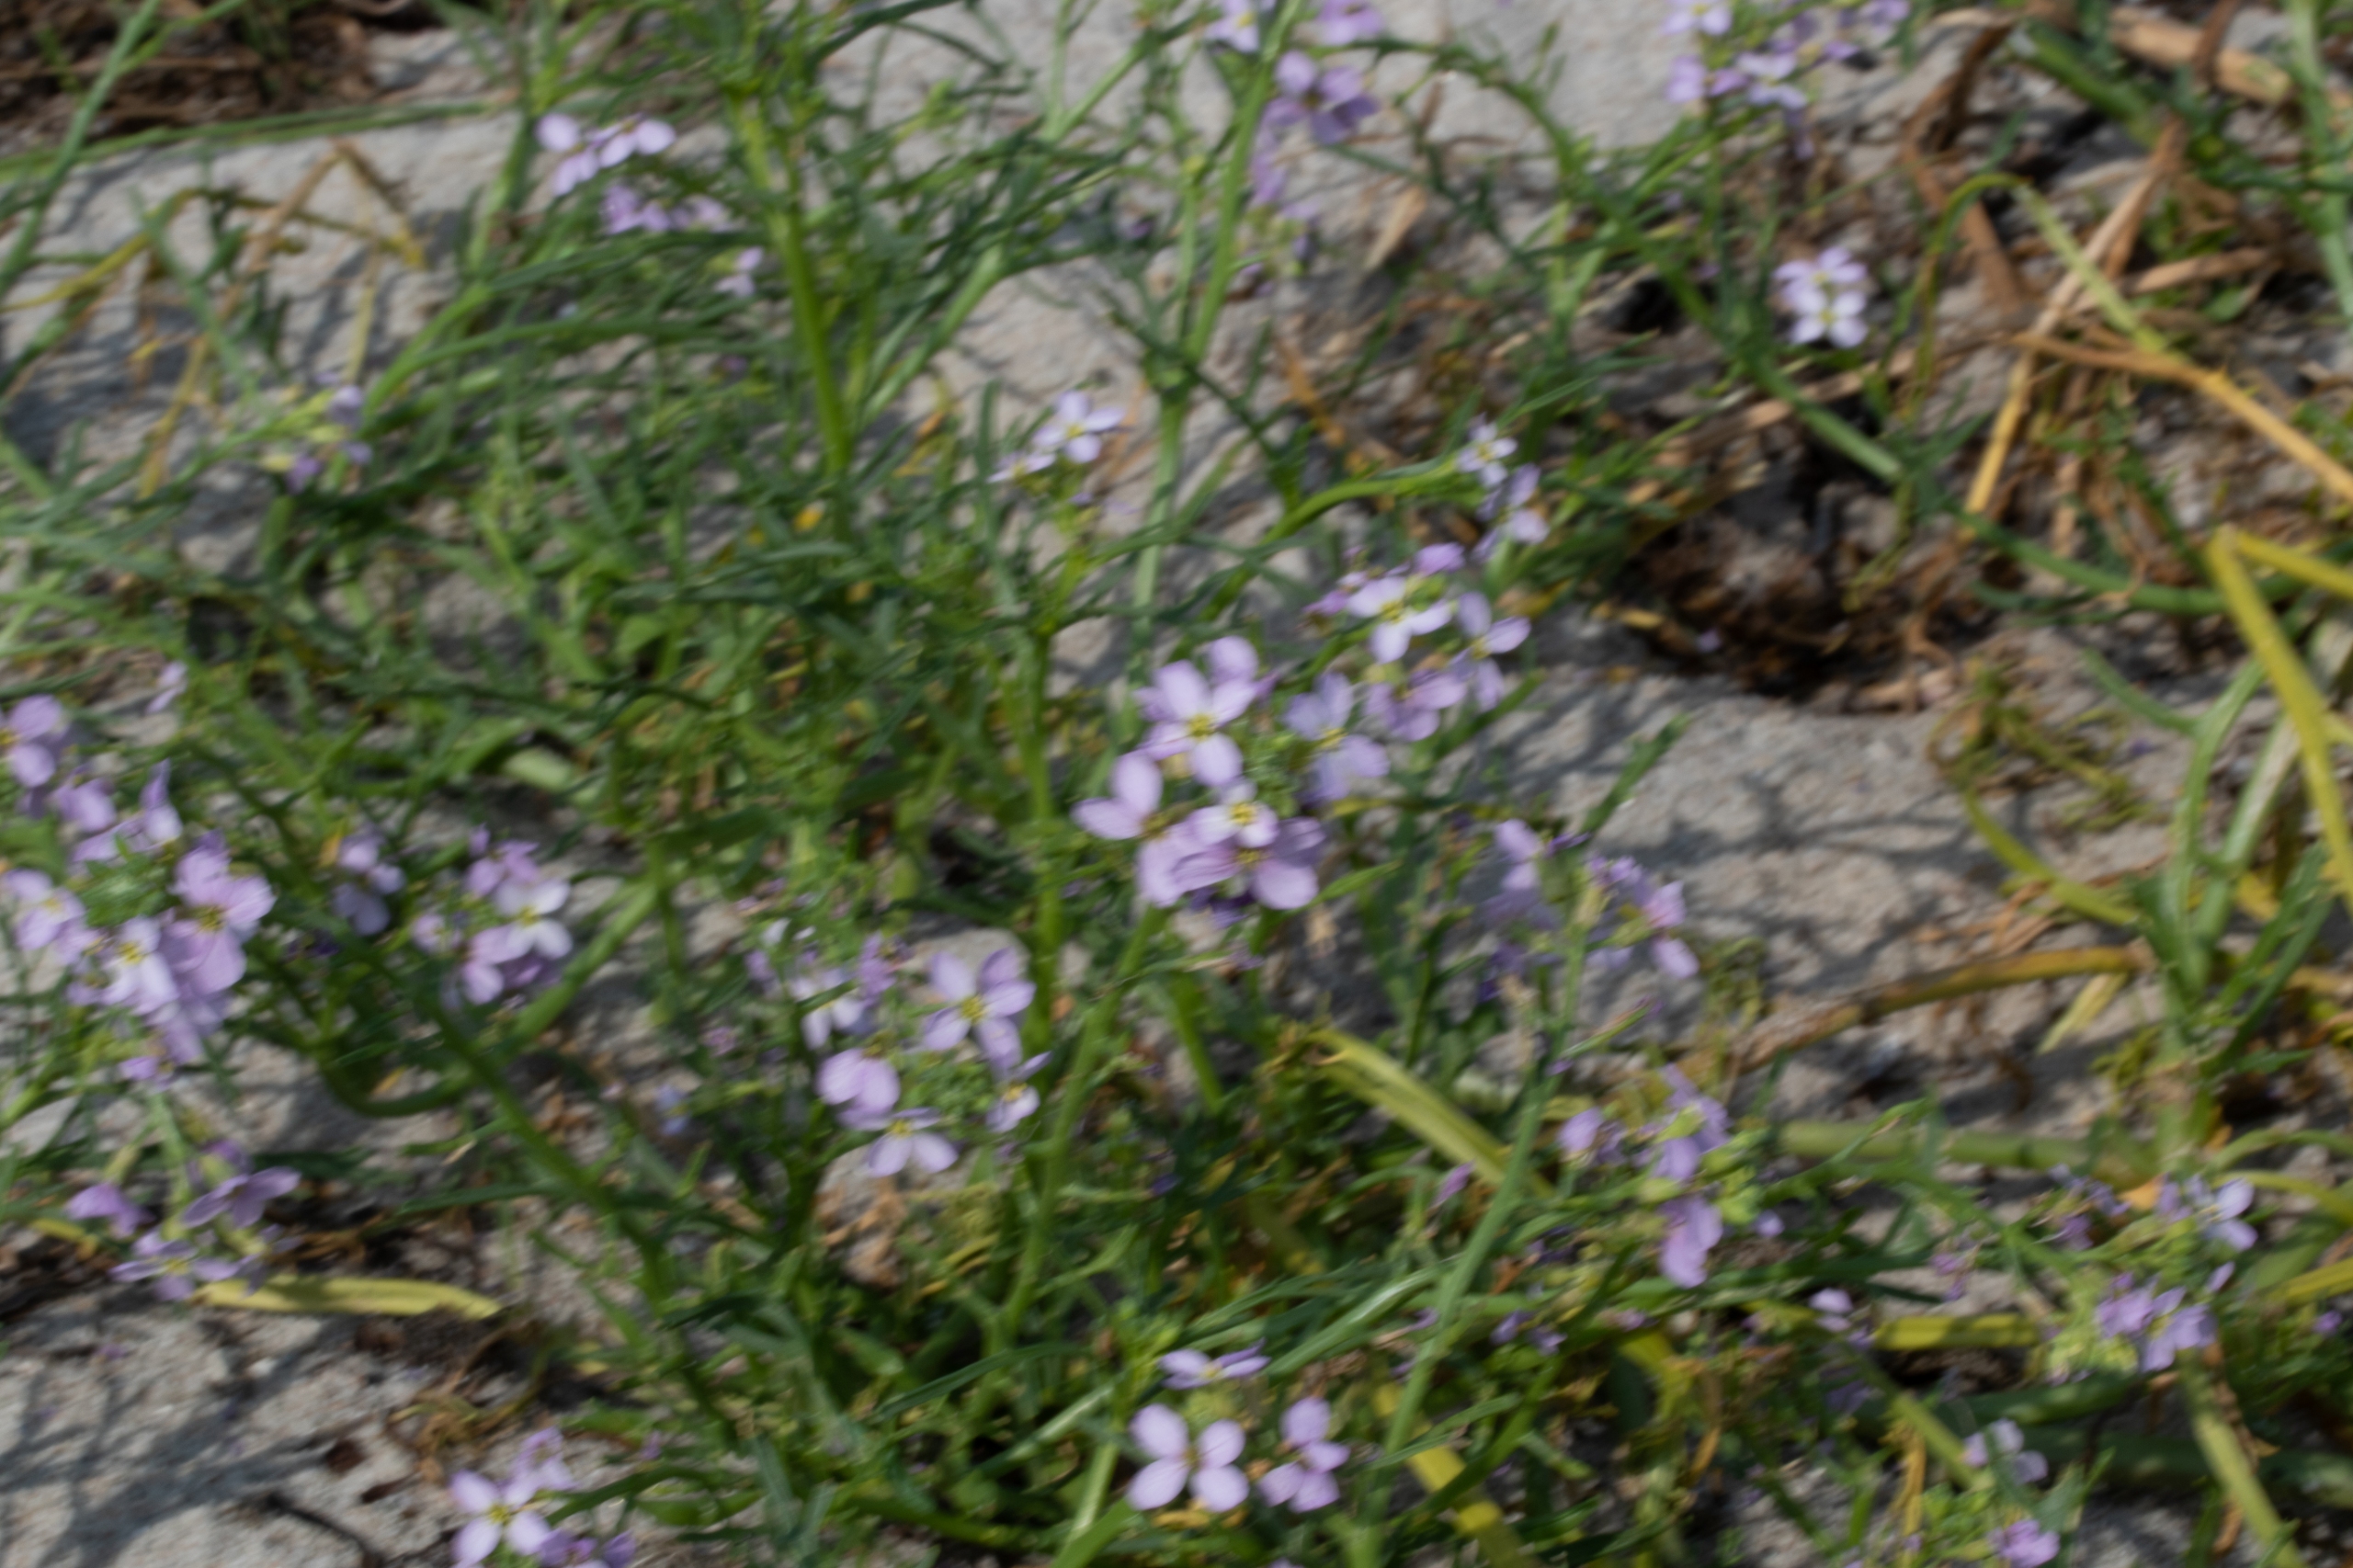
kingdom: Plantae
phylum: Tracheophyta
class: Magnoliopsida
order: Brassicales
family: Brassicaceae
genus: Cakile
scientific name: Cakile maritima
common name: Østersø-strandsennep
